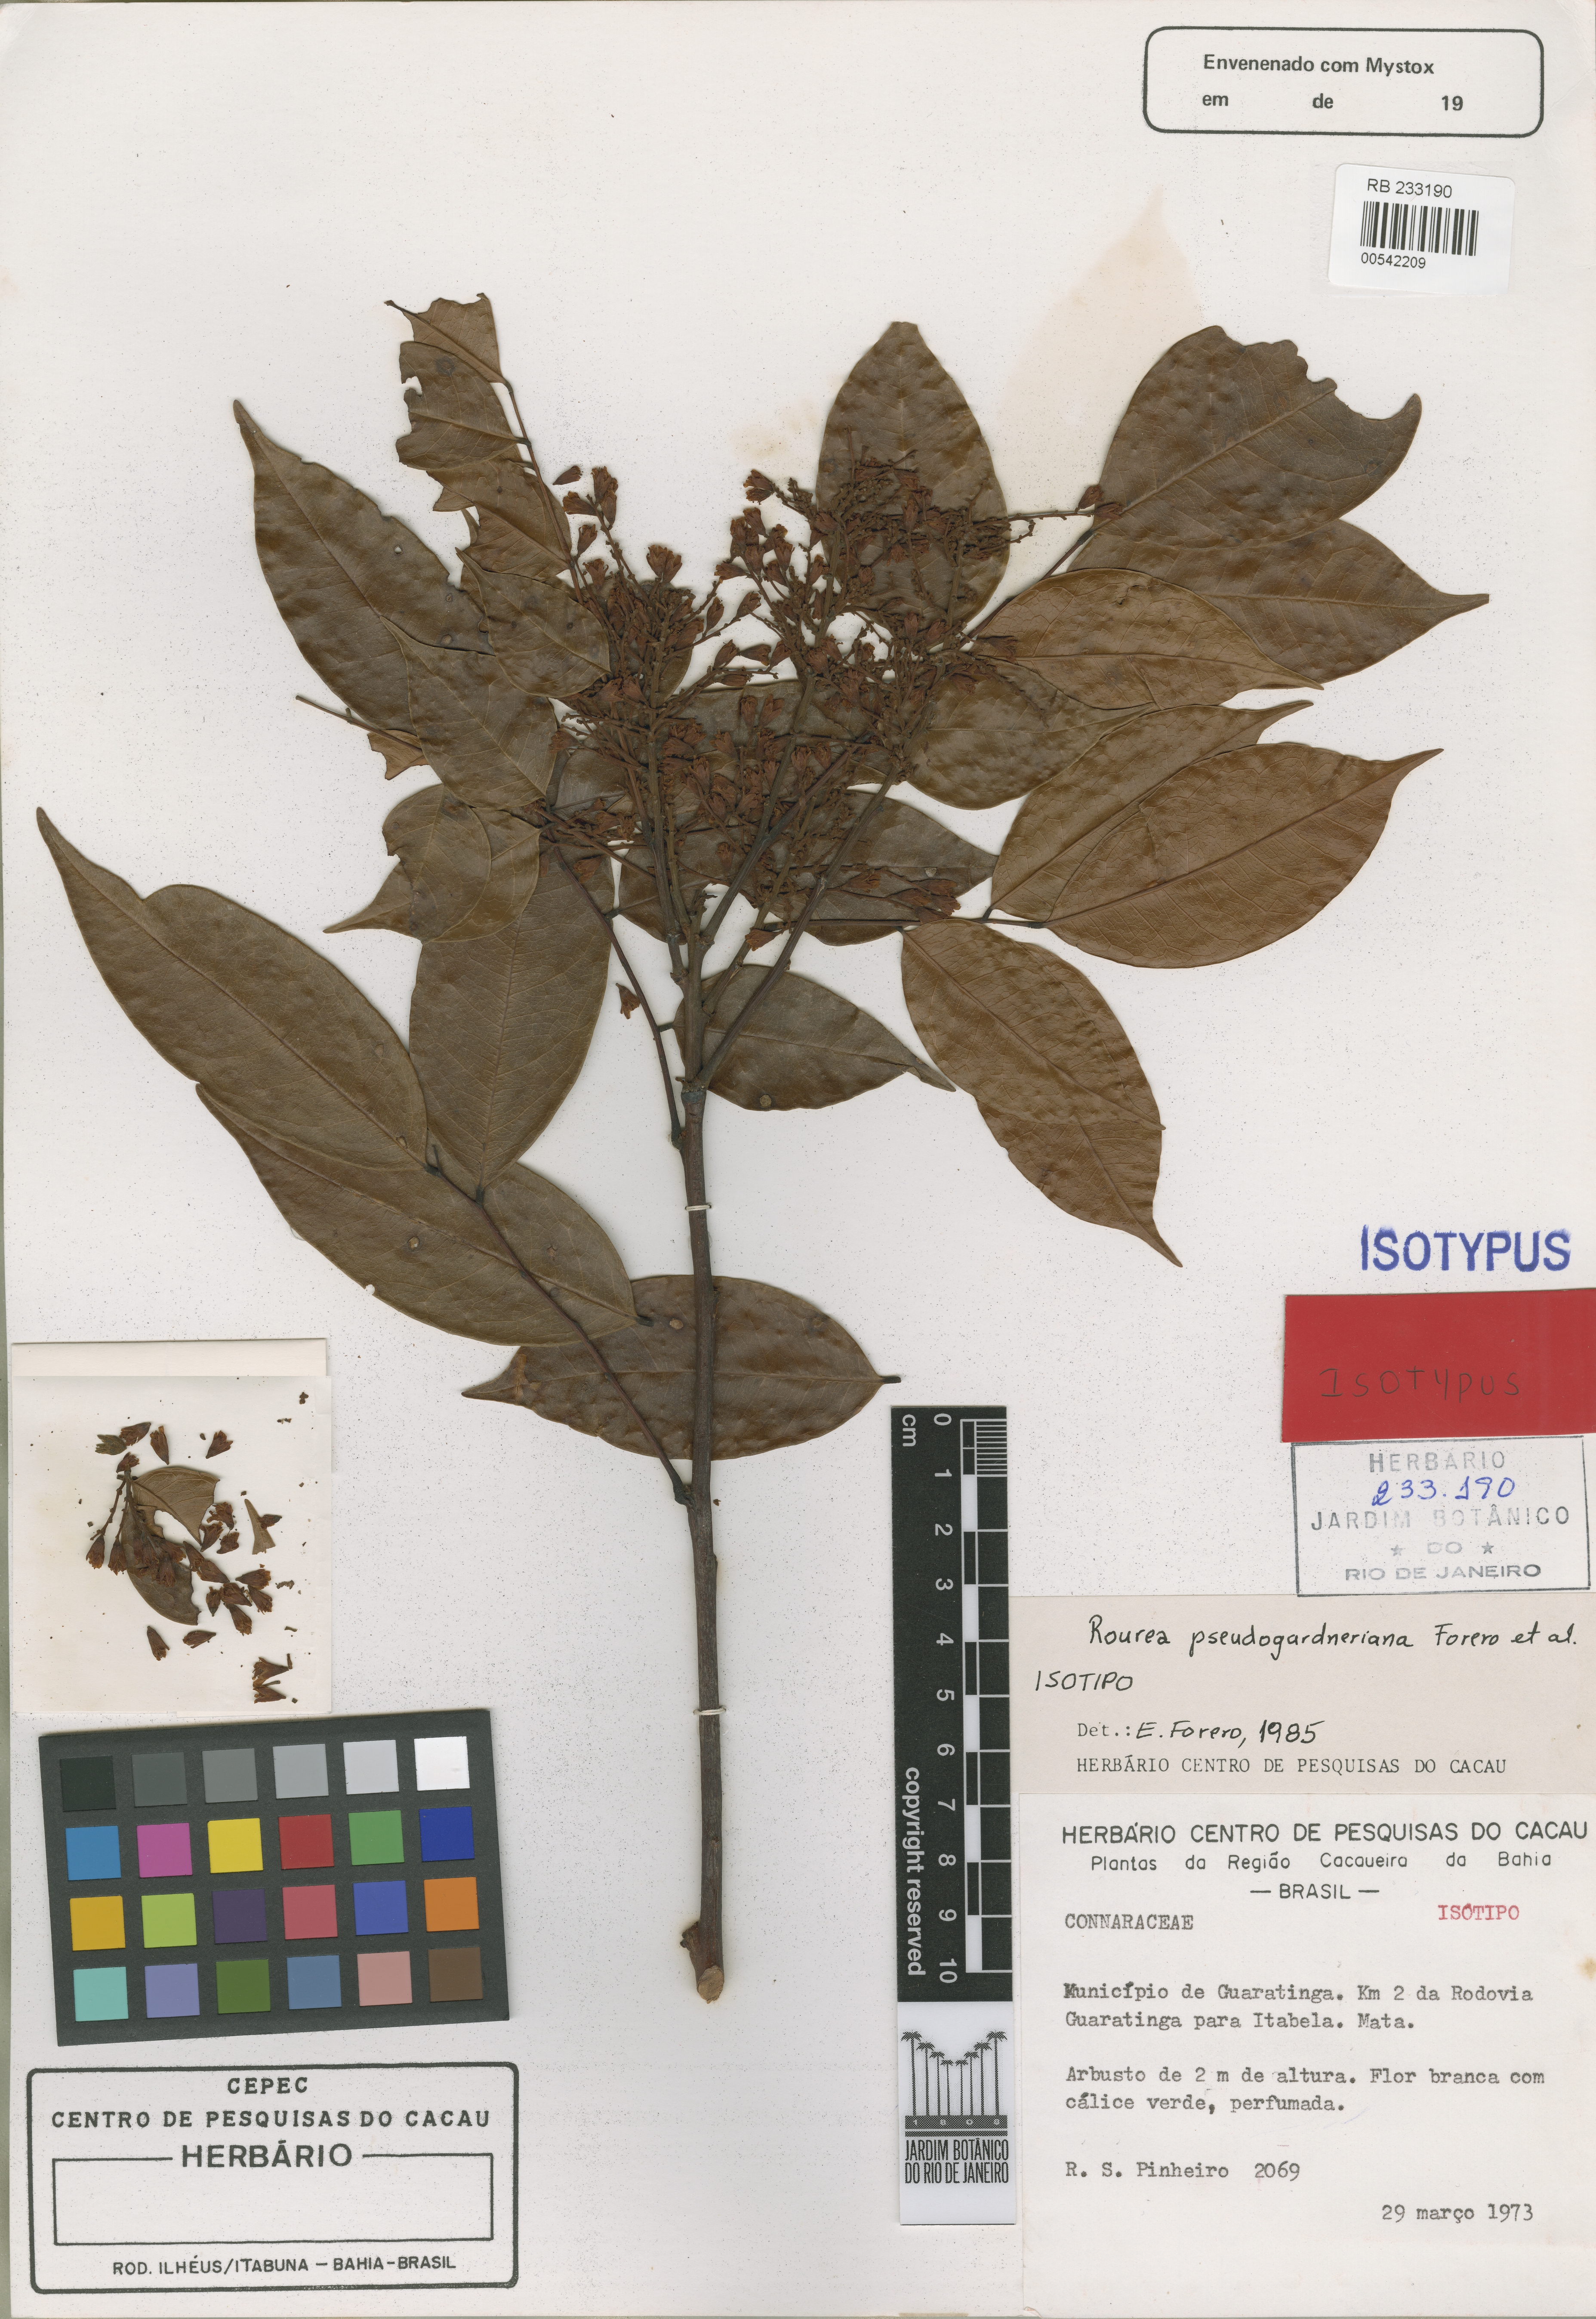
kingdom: Plantae
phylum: Tracheophyta
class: Magnoliopsida
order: Oxalidales
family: Connaraceae
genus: Rourea
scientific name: Rourea pseudogardneriana
